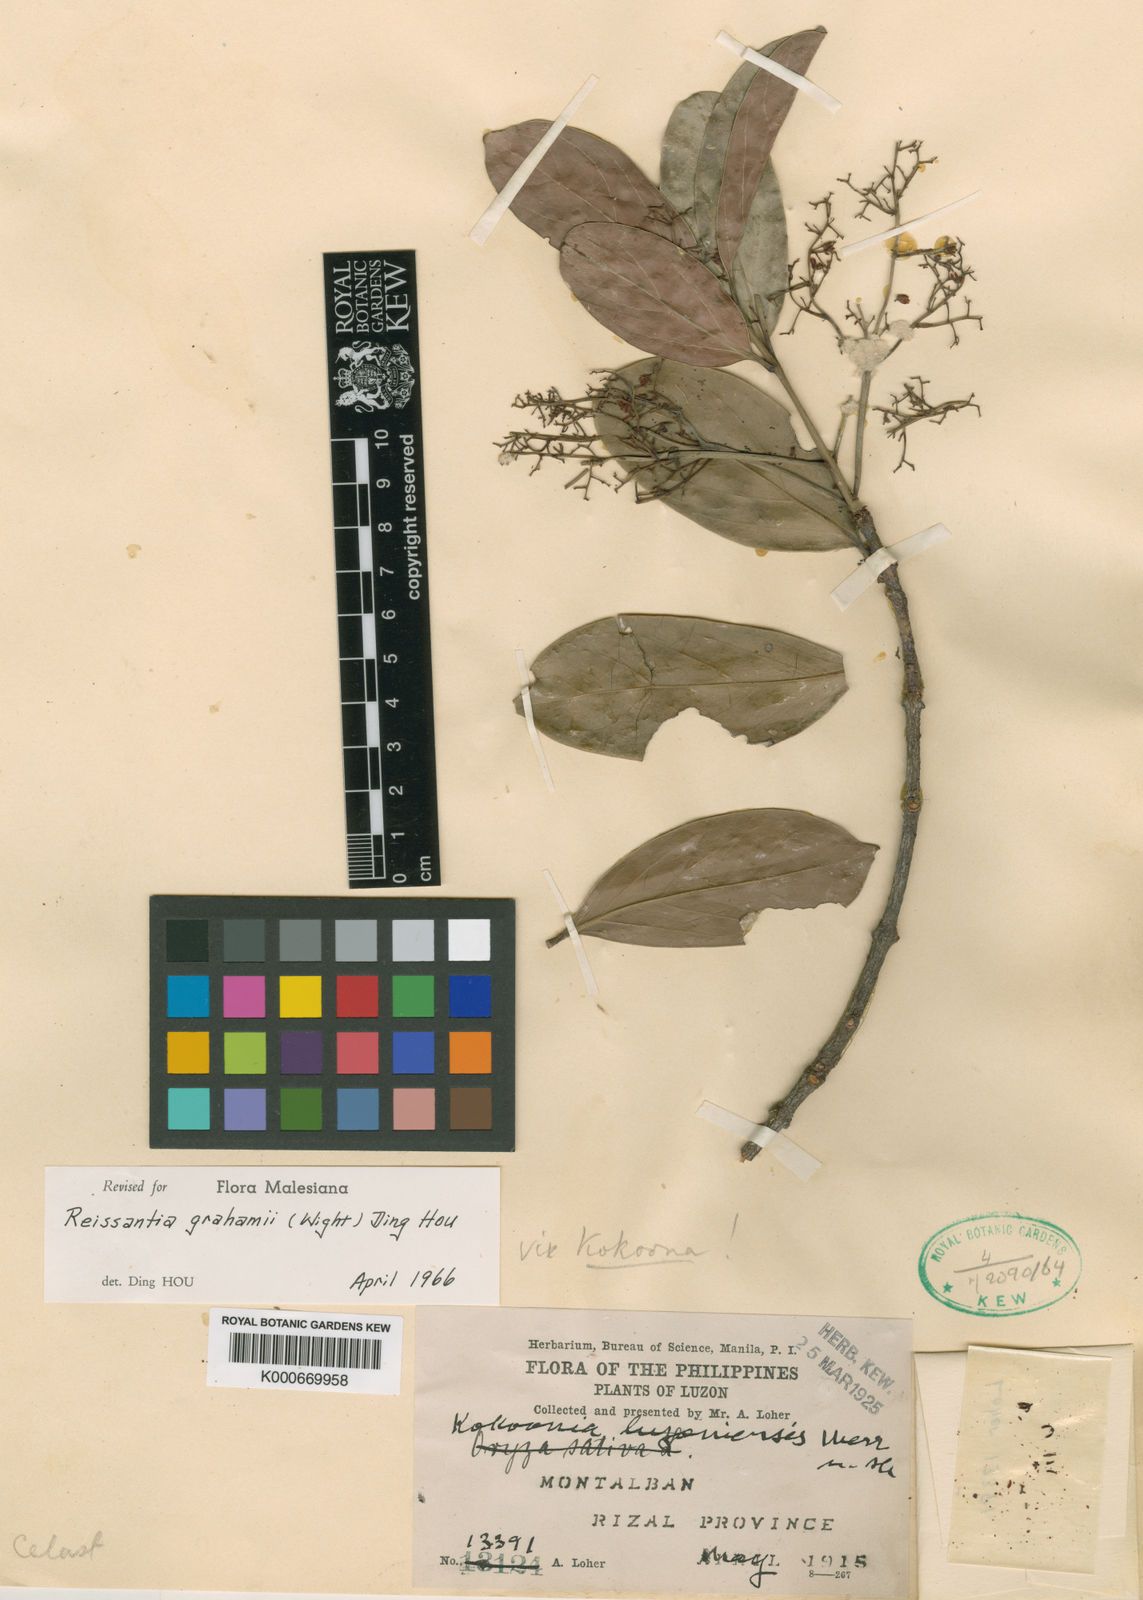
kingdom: Plantae
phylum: Tracheophyta
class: Magnoliopsida
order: Celastrales
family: Celastraceae
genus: Arnicratea
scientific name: Arnicratea grahamii
